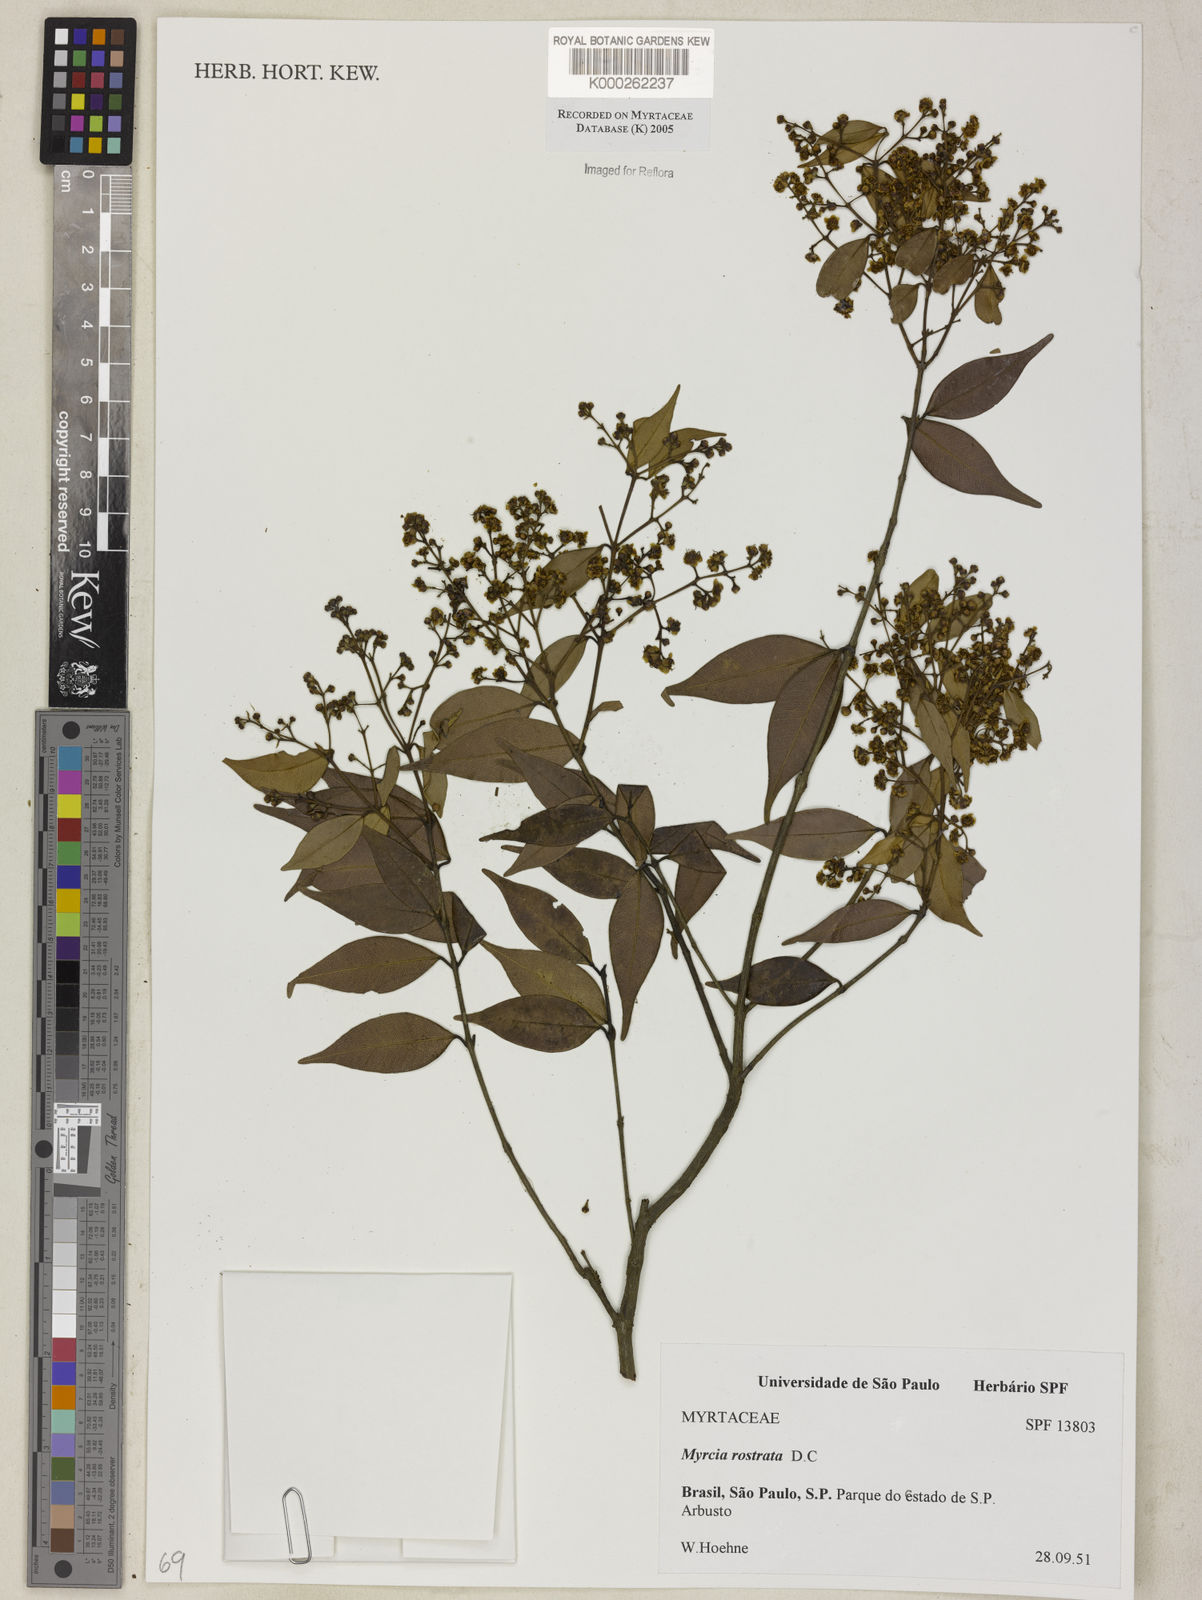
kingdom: Plantae
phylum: Tracheophyta
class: Magnoliopsida
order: Myrtales
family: Myrtaceae
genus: Myrcia
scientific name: Myrcia splendens
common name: Surinam cherry
